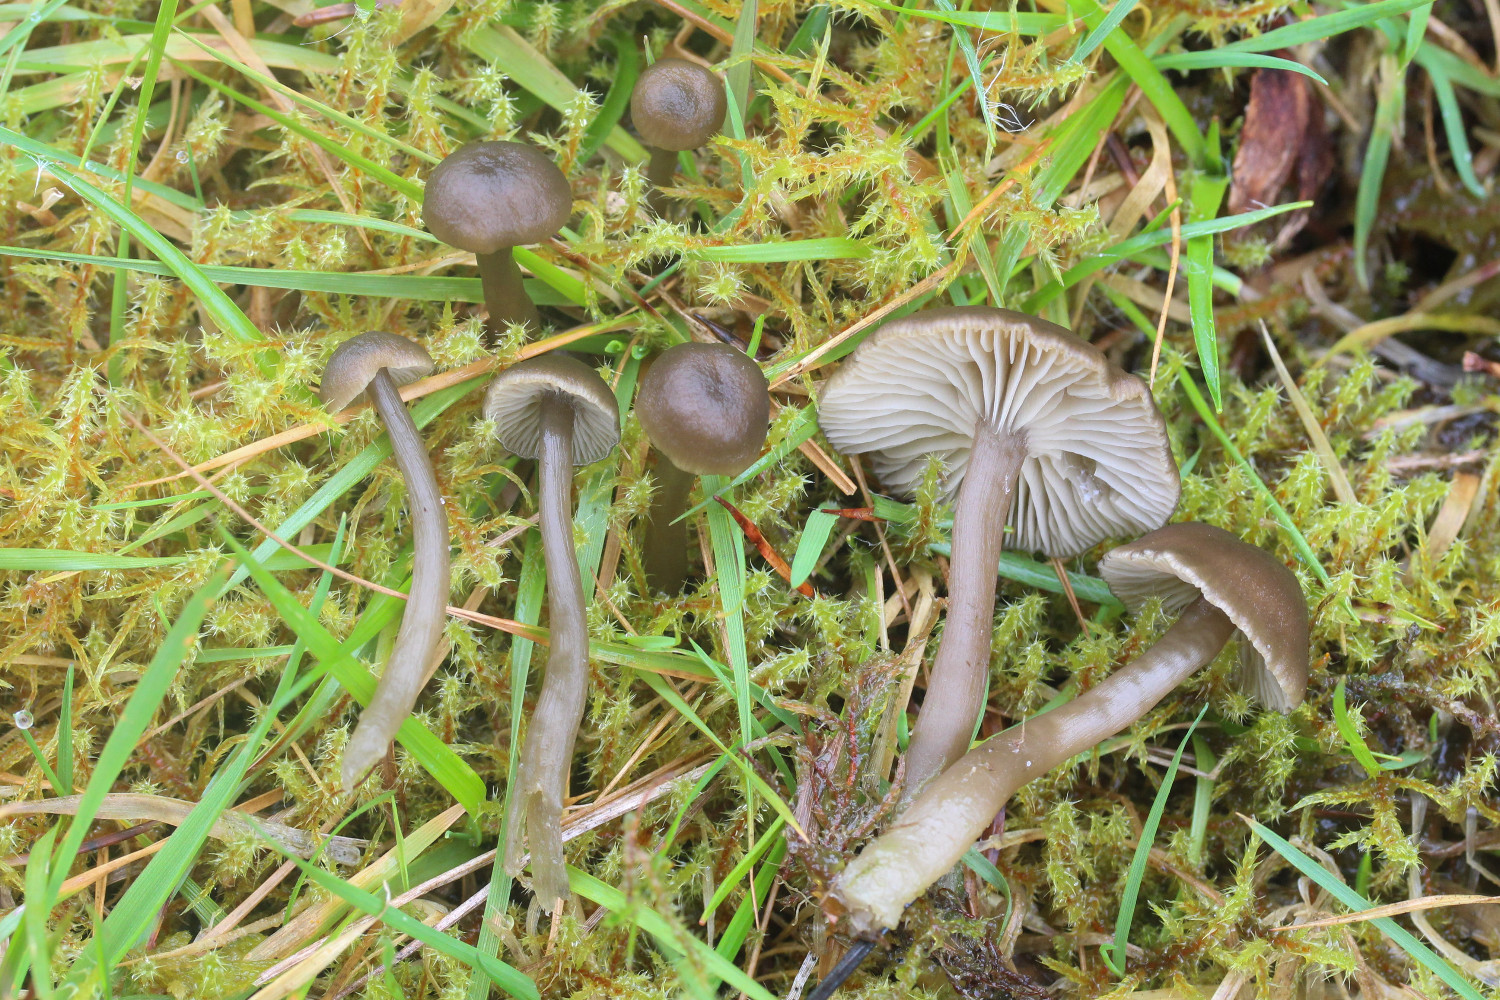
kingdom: Fungi
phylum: Basidiomycota
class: Agaricomycetes
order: Agaricales
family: Tricholomataceae
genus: Clitocybe
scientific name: Clitocybe foetens
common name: olivengrå tragthat
